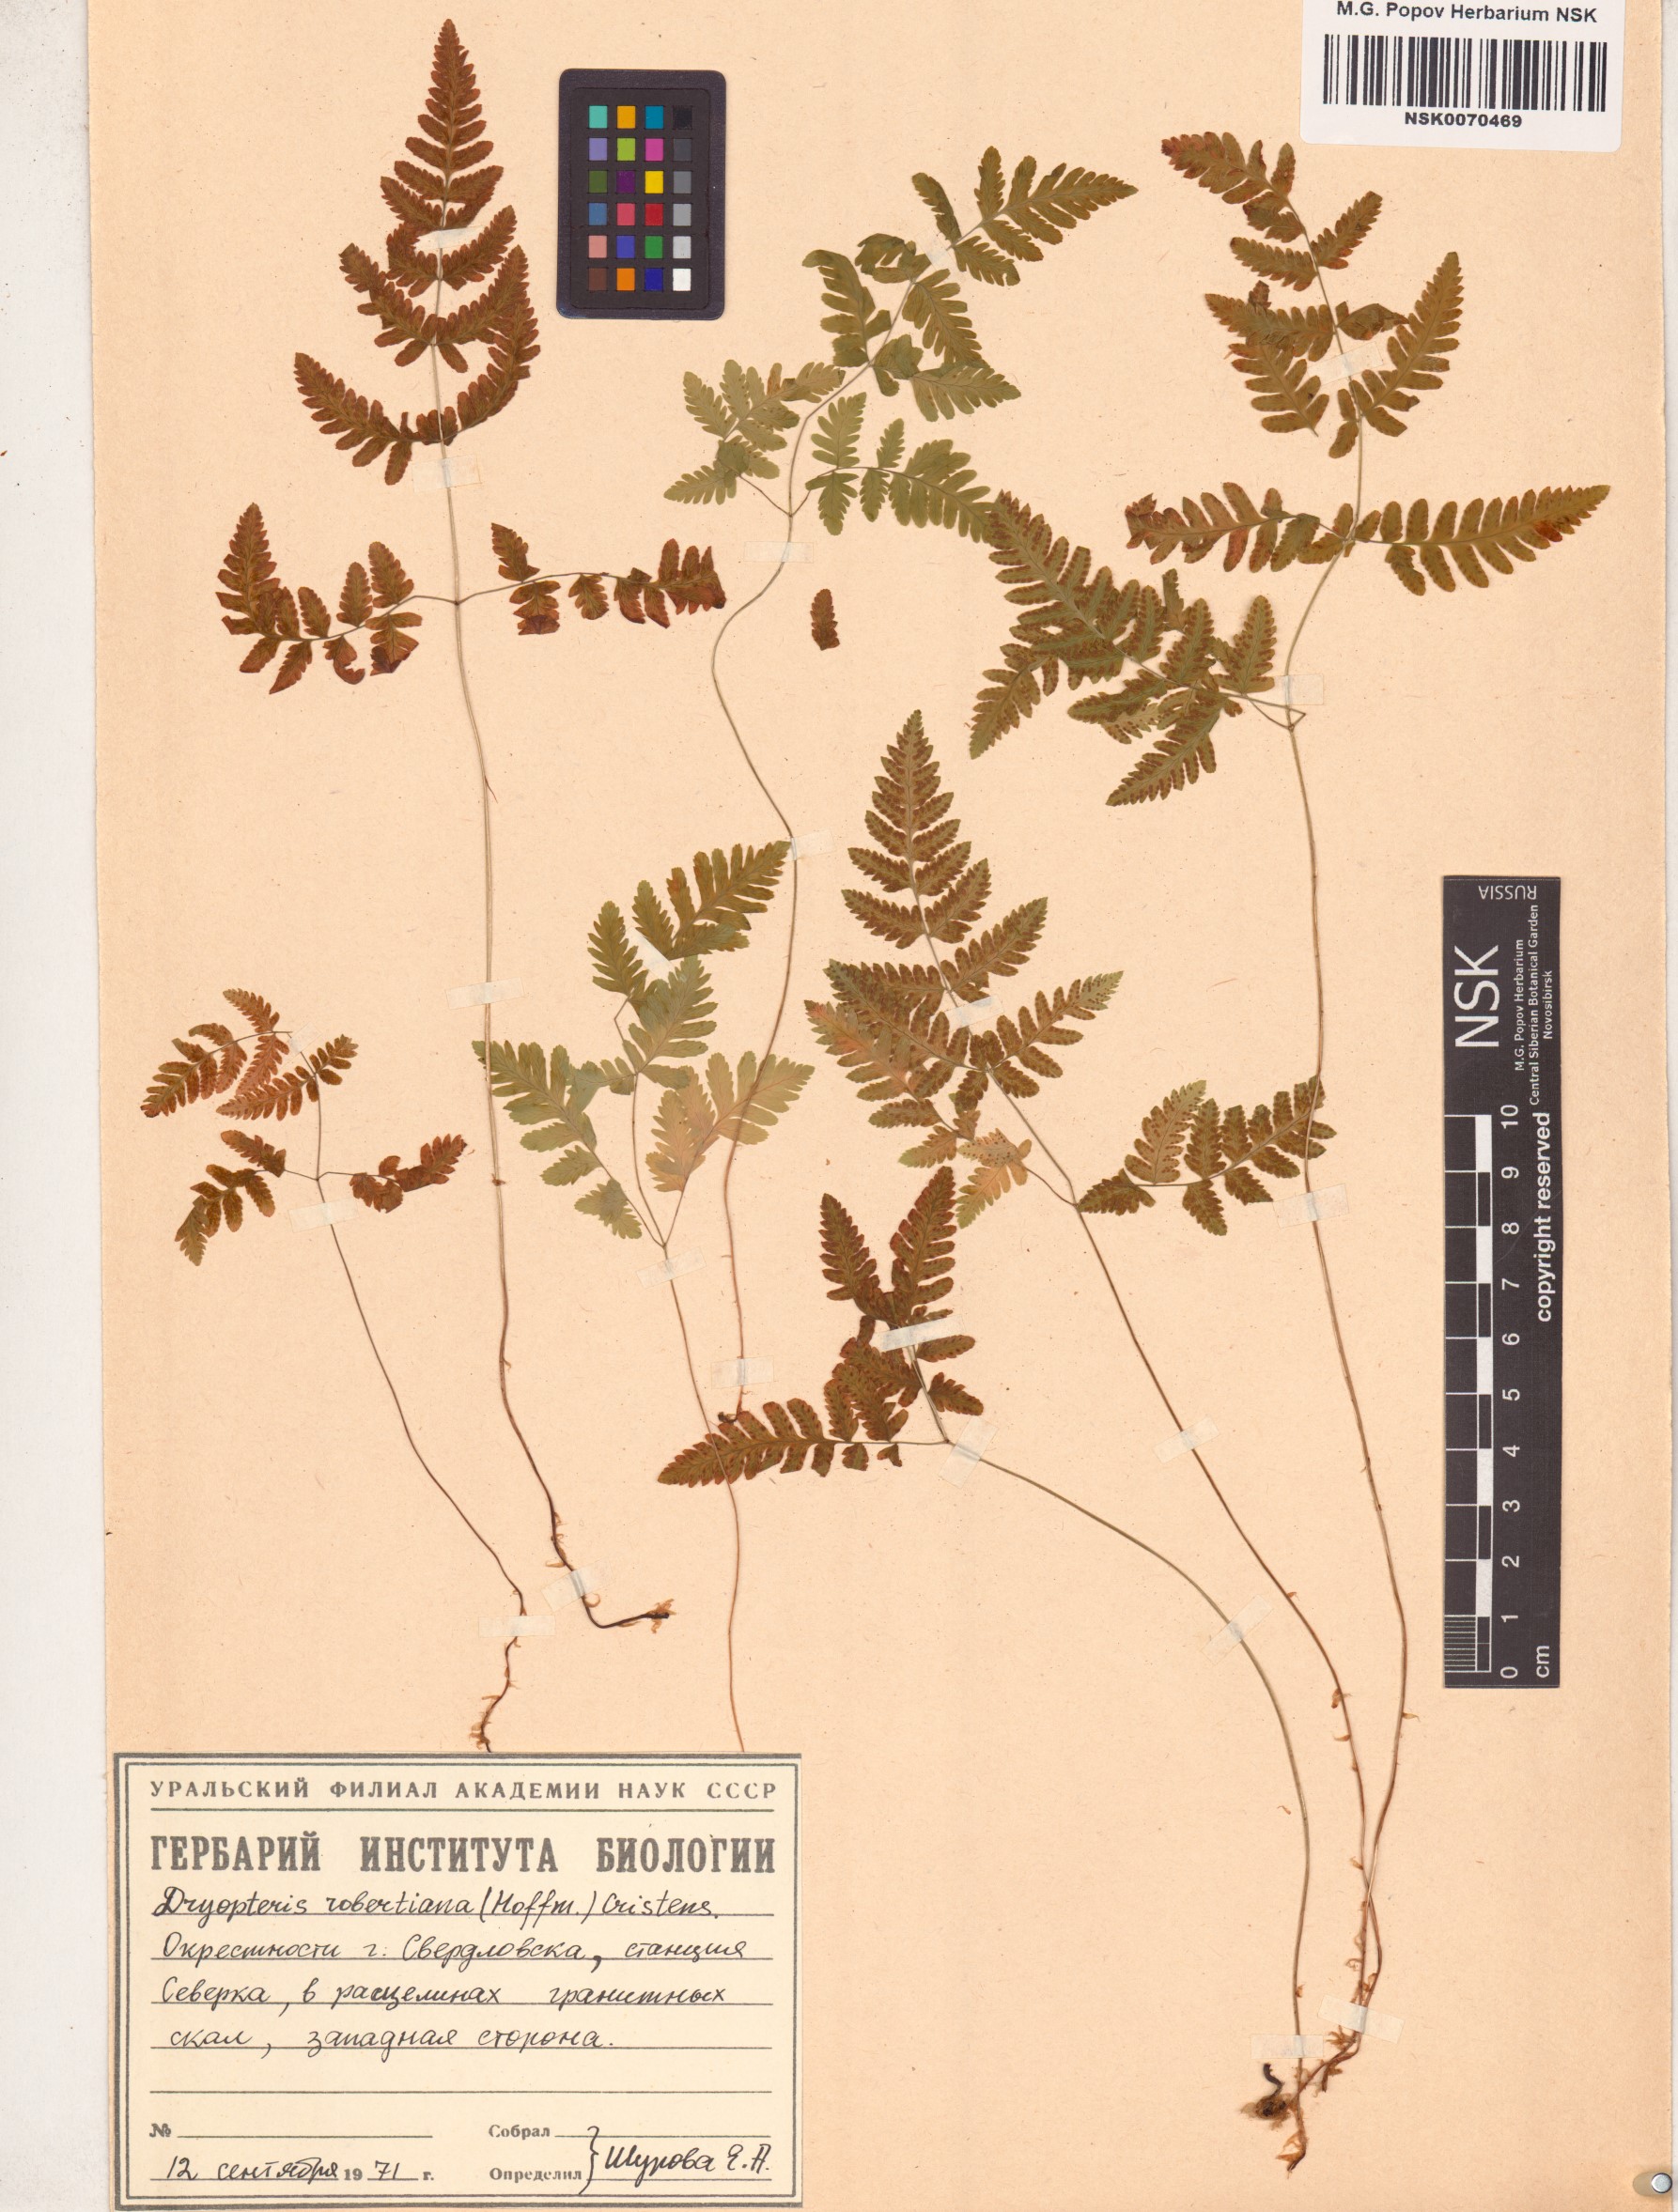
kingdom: Plantae
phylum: Tracheophyta
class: Polypodiopsida
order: Polypodiales
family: Cystopteridaceae
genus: Gymnocarpium
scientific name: Gymnocarpium robertianum
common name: Limestone fern
